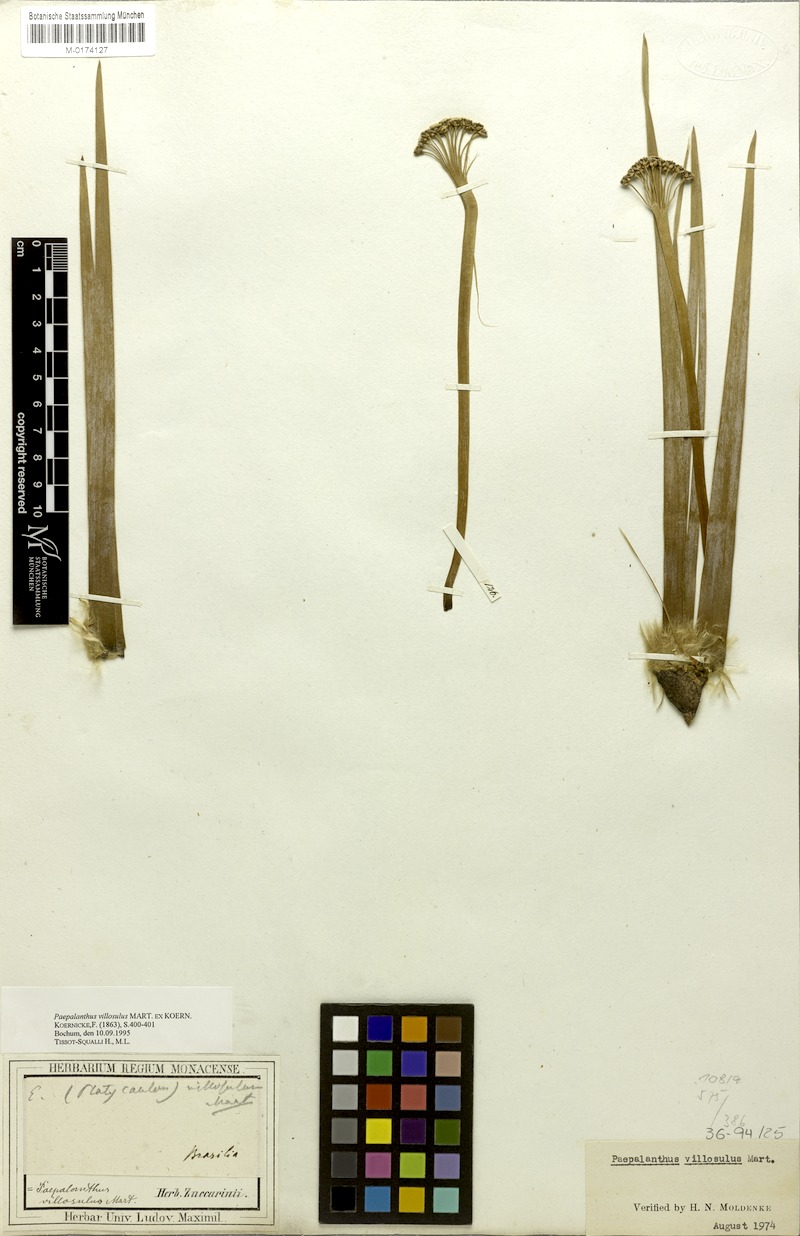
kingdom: Plantae
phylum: Tracheophyta
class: Liliopsida
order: Poales
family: Eriocaulaceae
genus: Paepalanthus
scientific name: Paepalanthus villosulus
